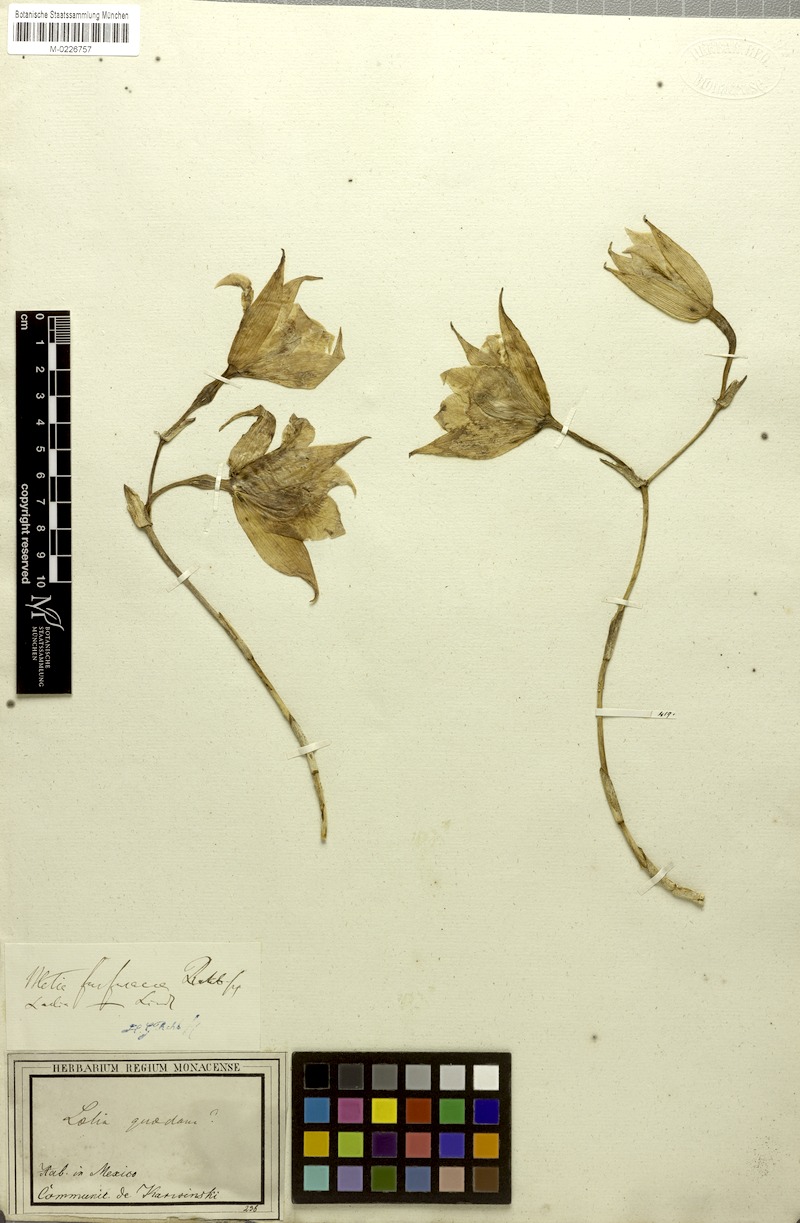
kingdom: Plantae
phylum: Tracheophyta
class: Liliopsida
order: Asparagales
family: Orchidaceae
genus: Laelia
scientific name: Laelia furfuracea
